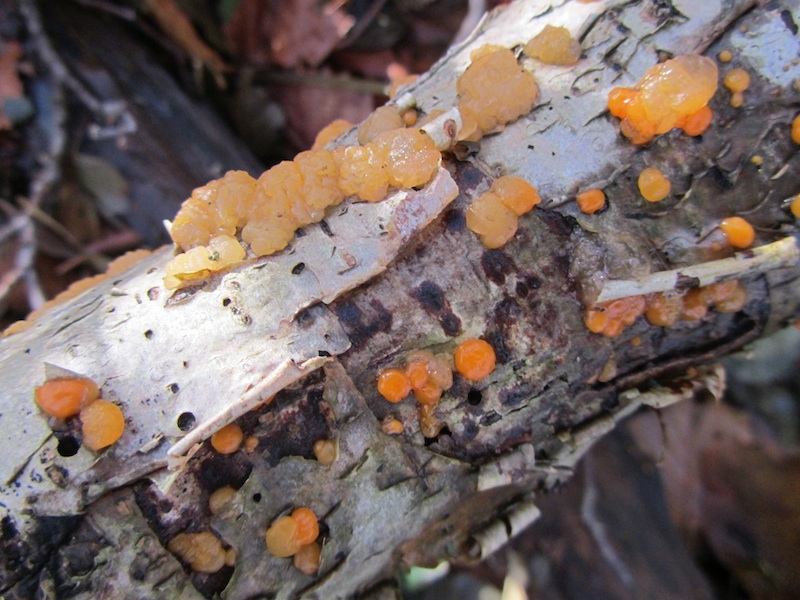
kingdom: Fungi
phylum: Basidiomycota
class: Dacrymycetes
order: Dacrymycetales
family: Dacrymycetaceae
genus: Dacrymyces
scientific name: Dacrymyces stillatus
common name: almindelig tåresvamp
